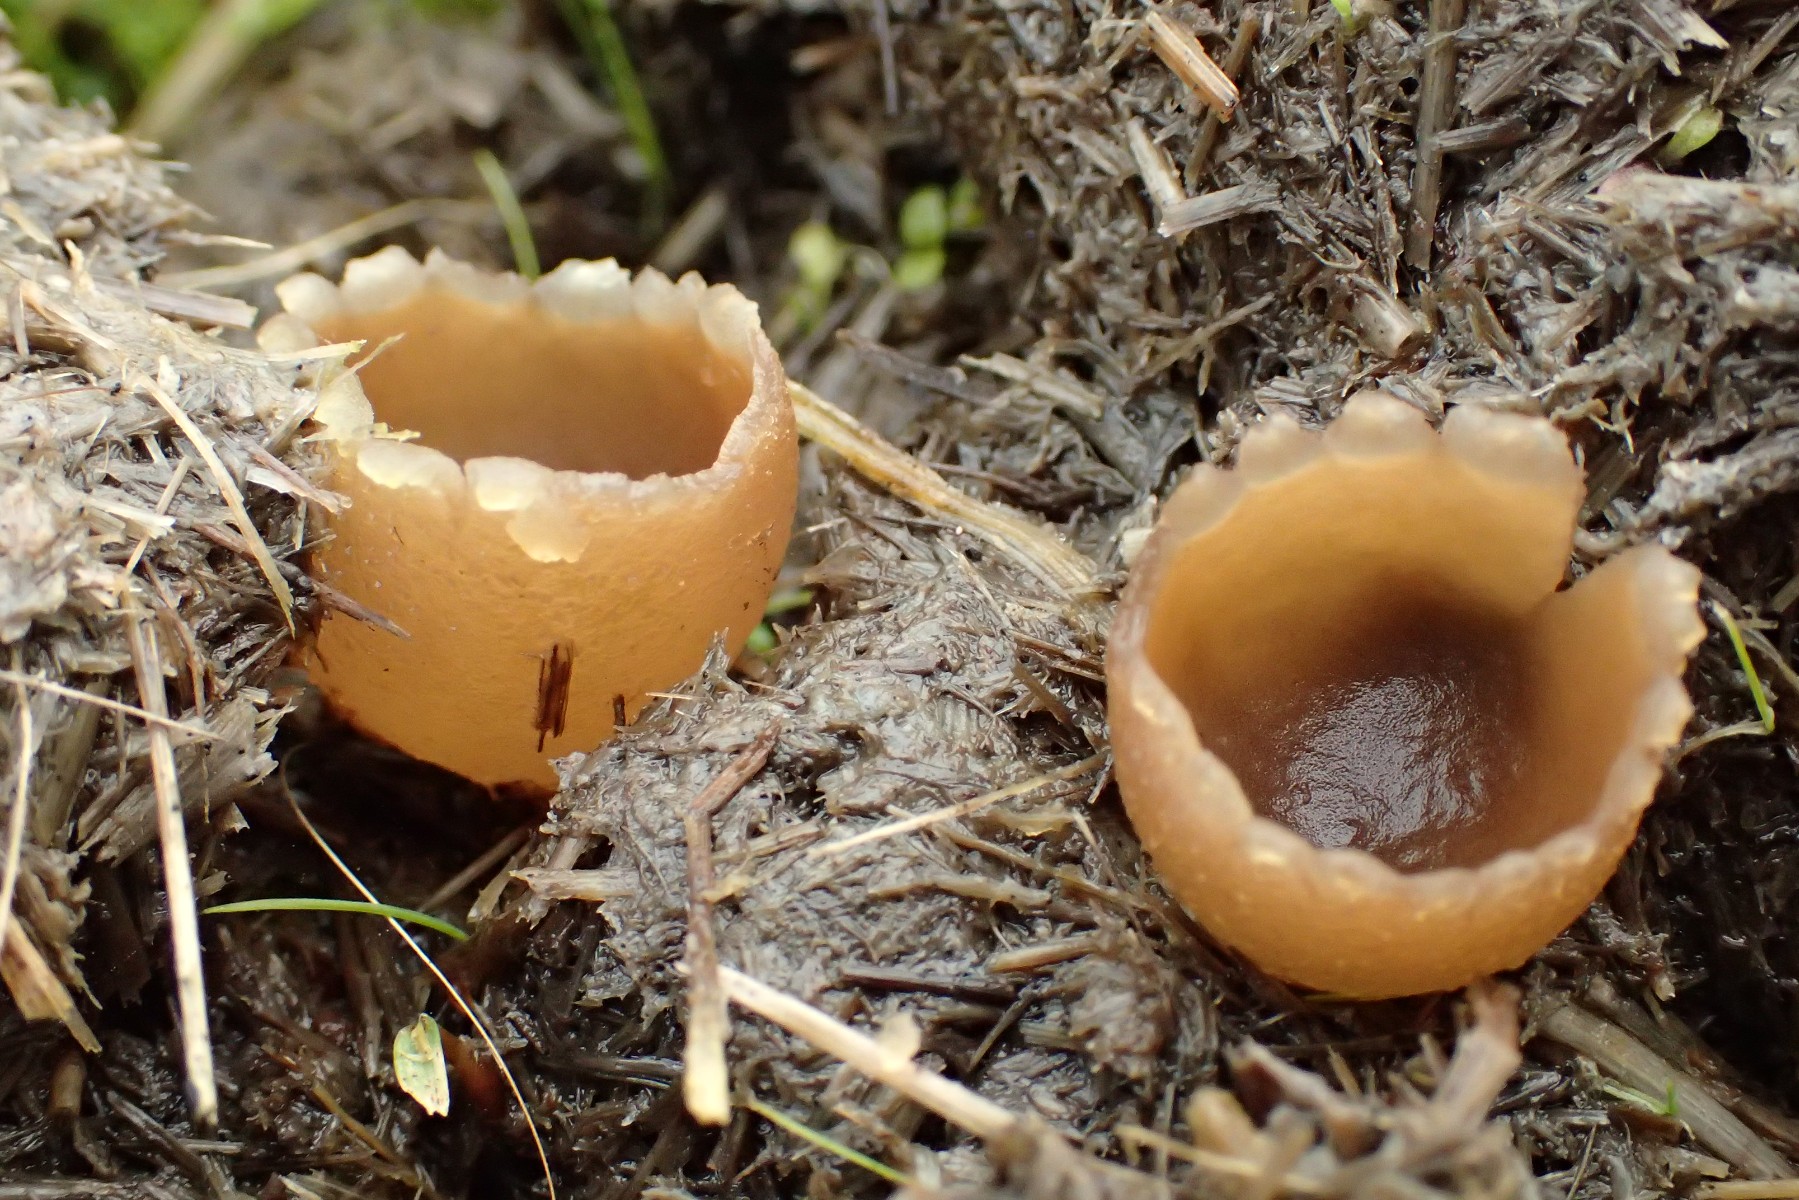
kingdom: Fungi
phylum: Ascomycota
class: Pezizomycetes
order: Pezizales
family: Pezizaceae
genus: Peziza
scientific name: Peziza
